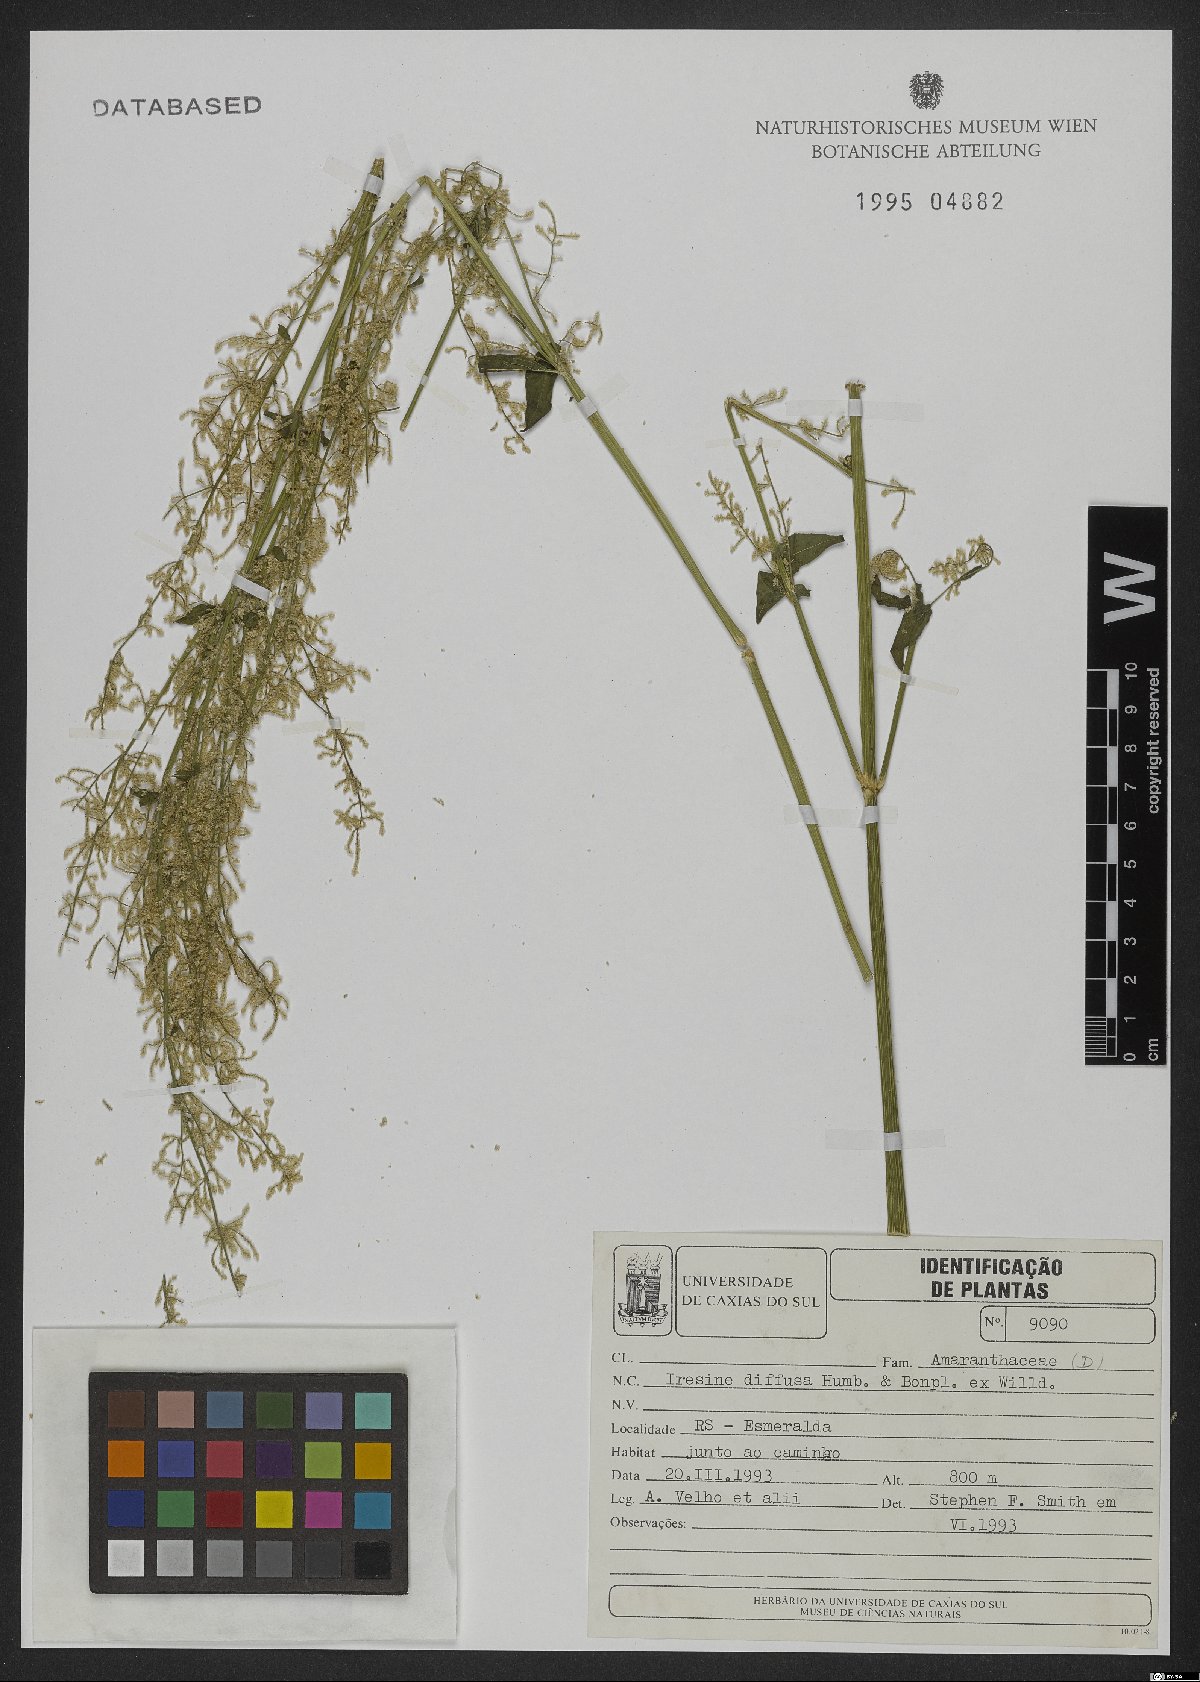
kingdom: Plantae
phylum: Tracheophyta
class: Magnoliopsida
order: Caryophyllales
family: Amaranthaceae
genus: Iresine
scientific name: Iresine diffusa
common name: Juba's-bush
